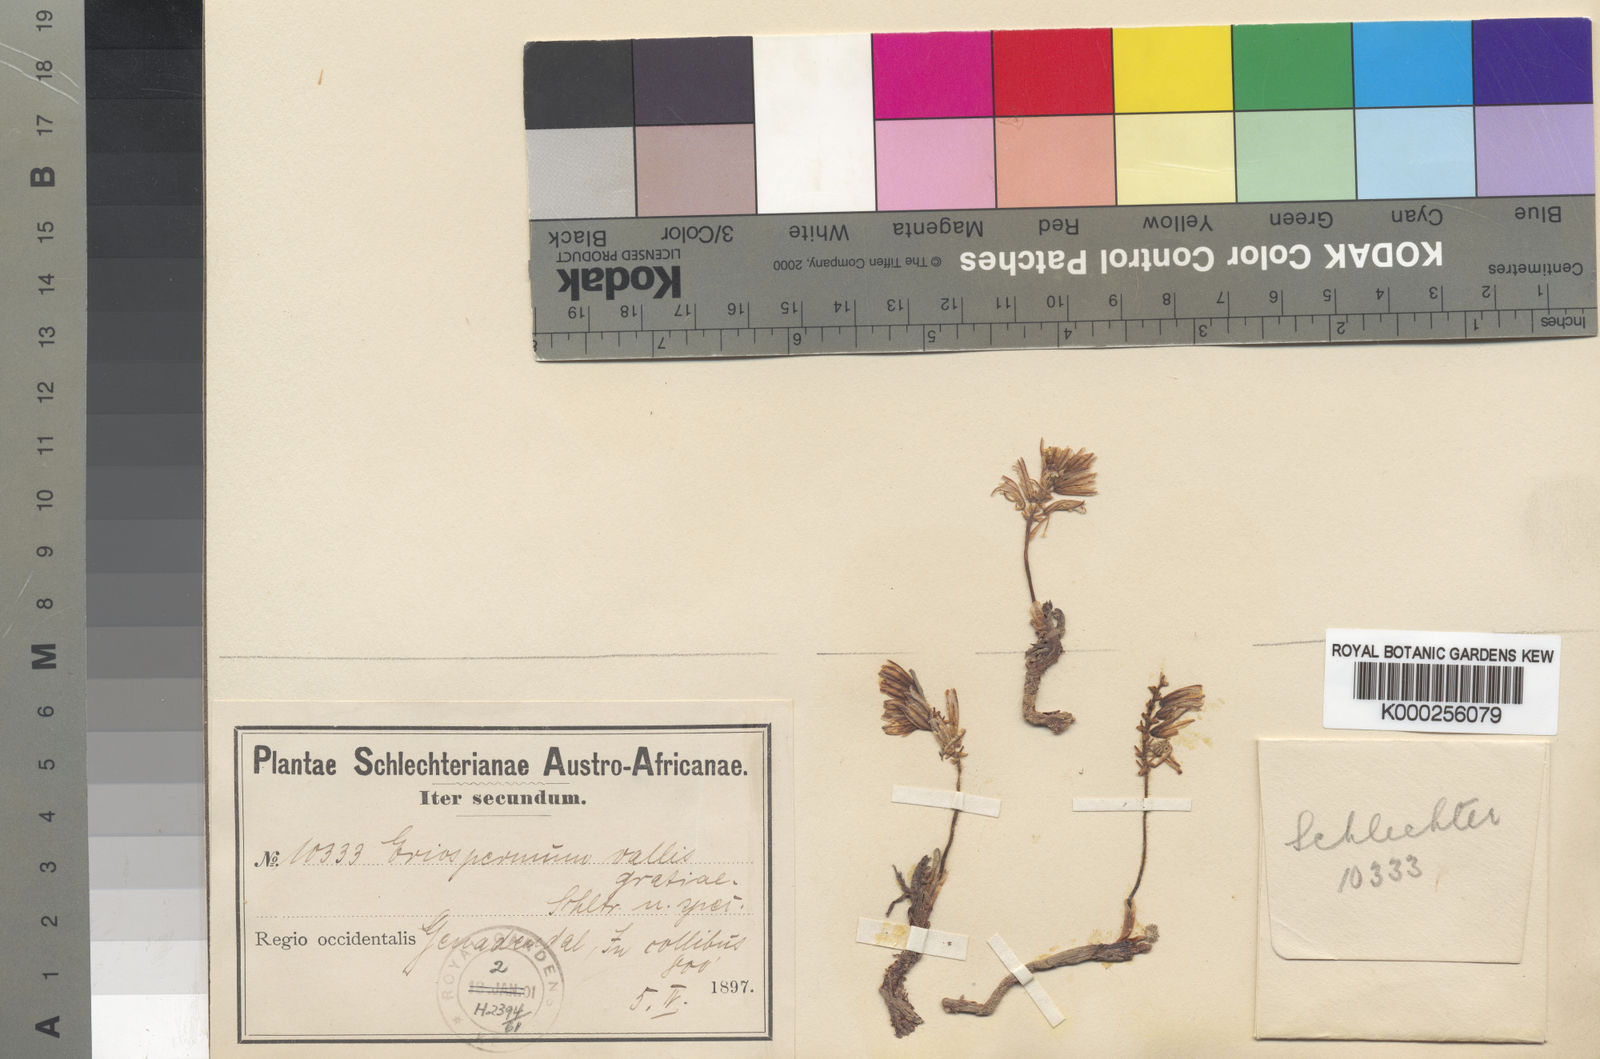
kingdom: Plantae
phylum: Tracheophyta
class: Liliopsida
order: Asparagales
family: Asparagaceae
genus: Eriospermum
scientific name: Eriospermum paradoxum
